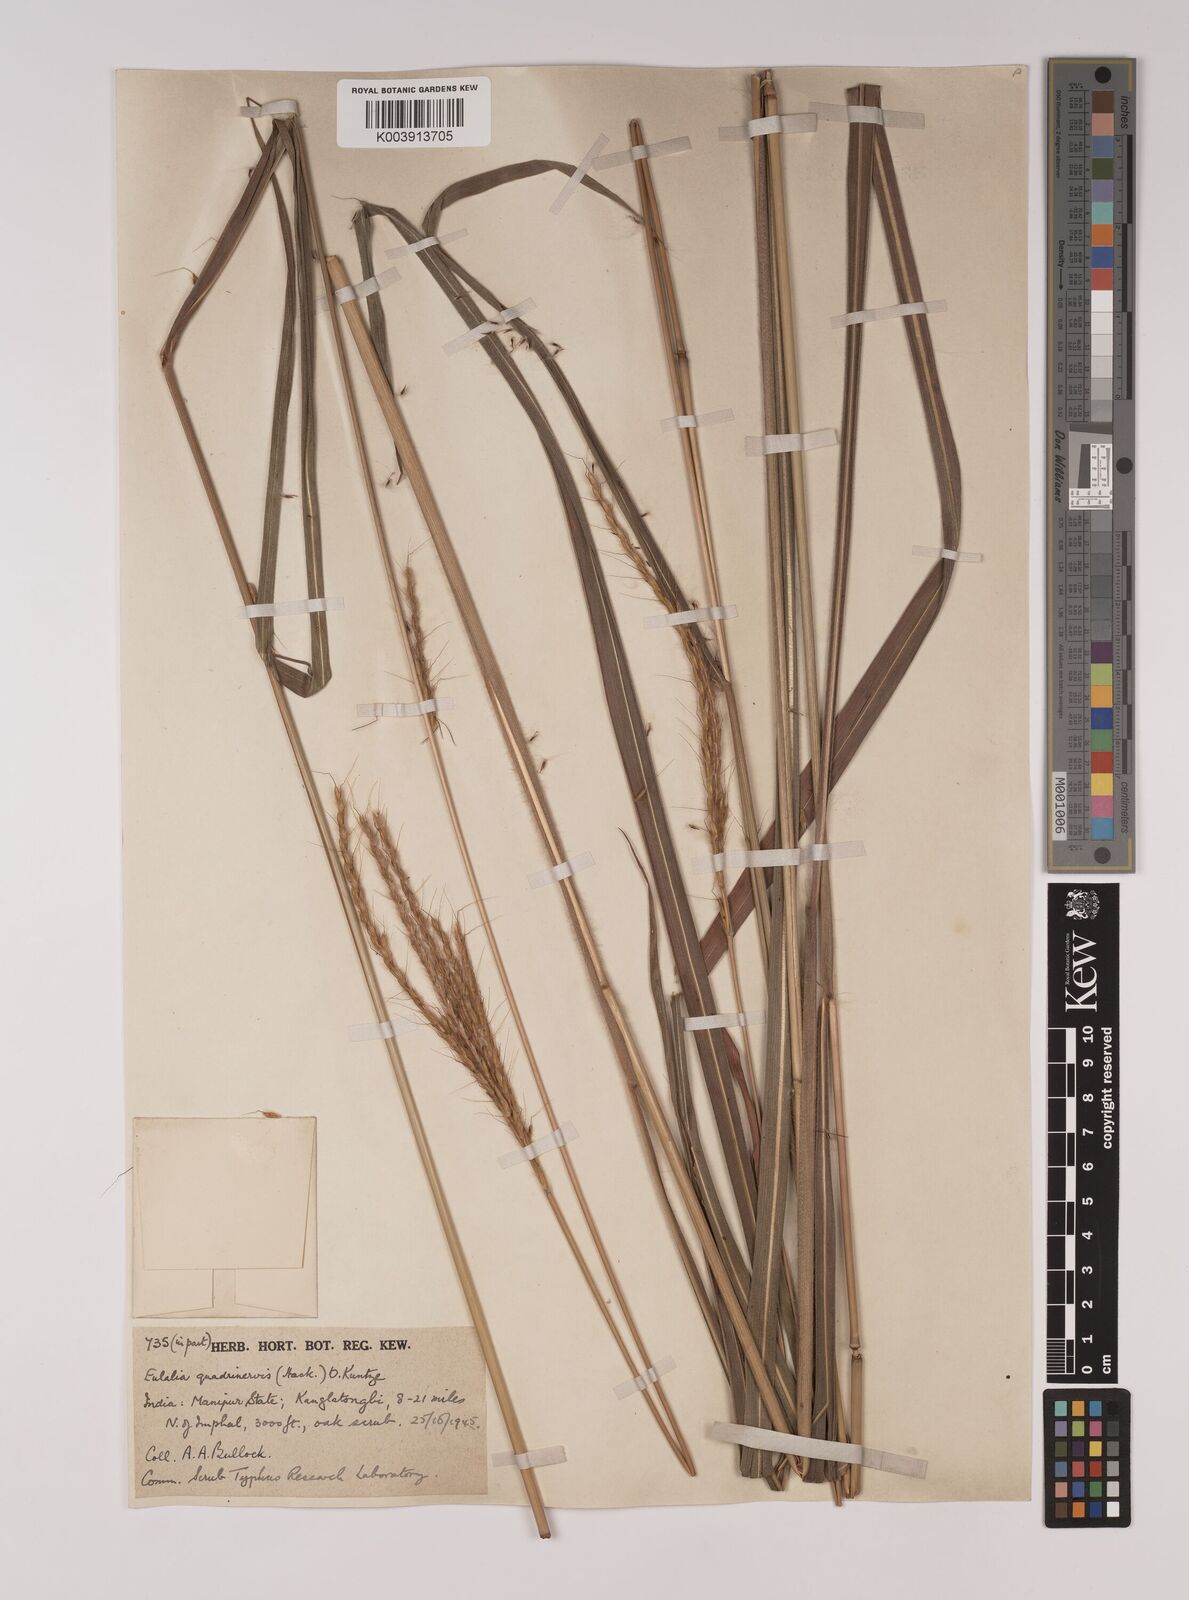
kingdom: Plantae
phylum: Tracheophyta
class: Liliopsida
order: Poales
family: Poaceae
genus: Pseudopogonatherum
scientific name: Pseudopogonatherum quadrinerve
